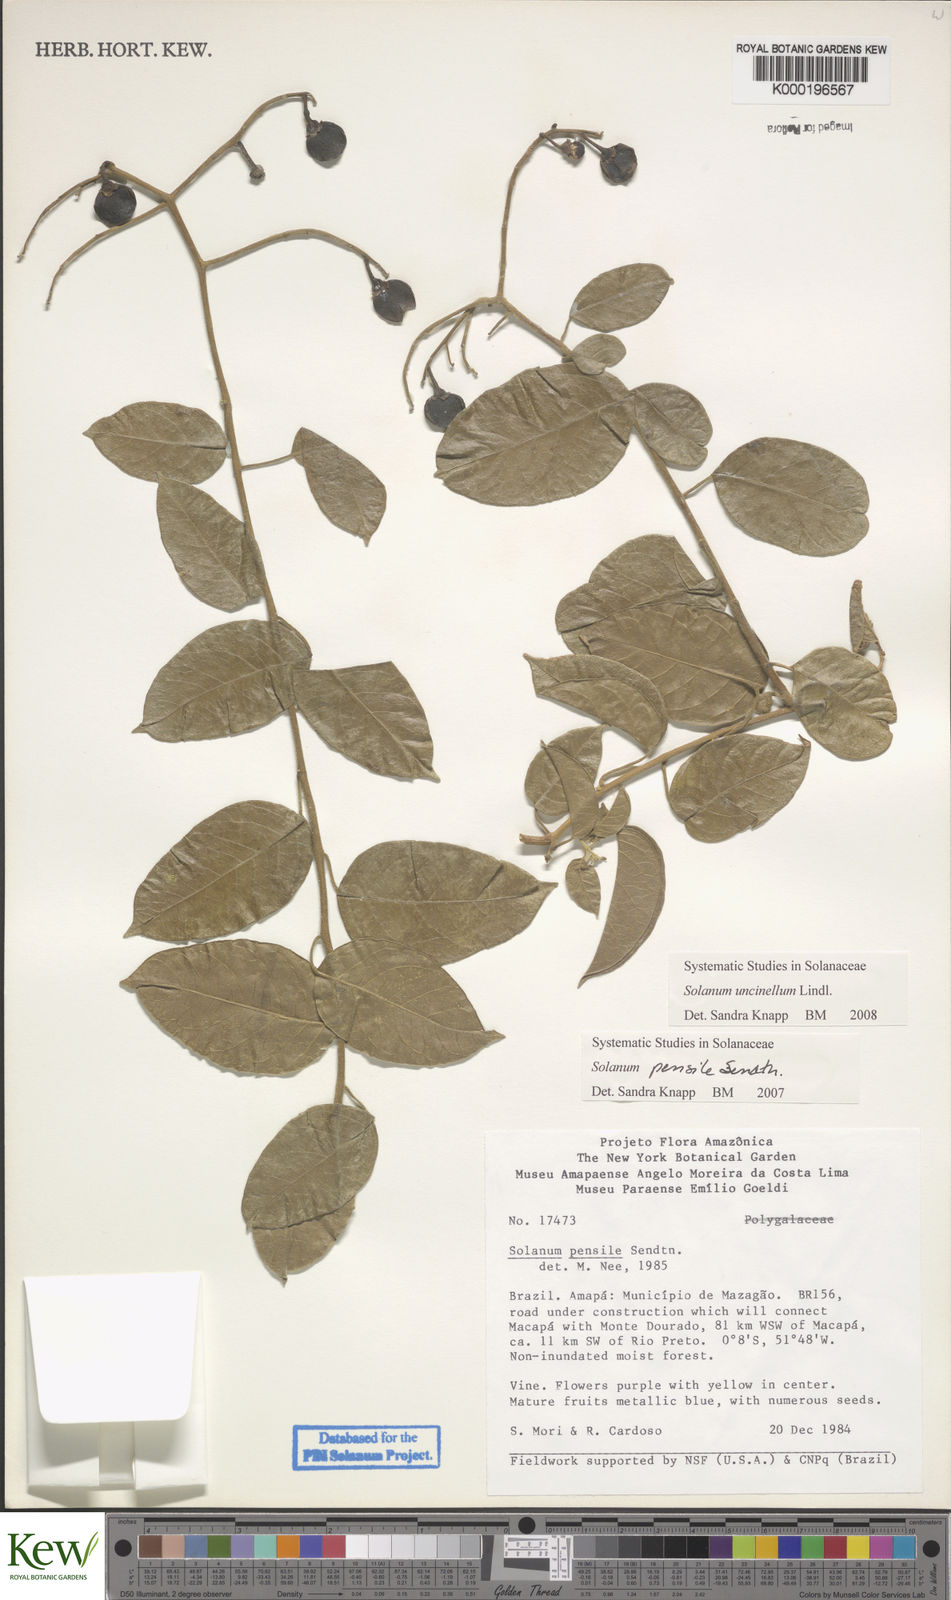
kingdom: Plantae
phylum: Tracheophyta
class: Magnoliopsida
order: Solanales
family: Solanaceae
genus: Solanum
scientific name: Solanum uncinellum
